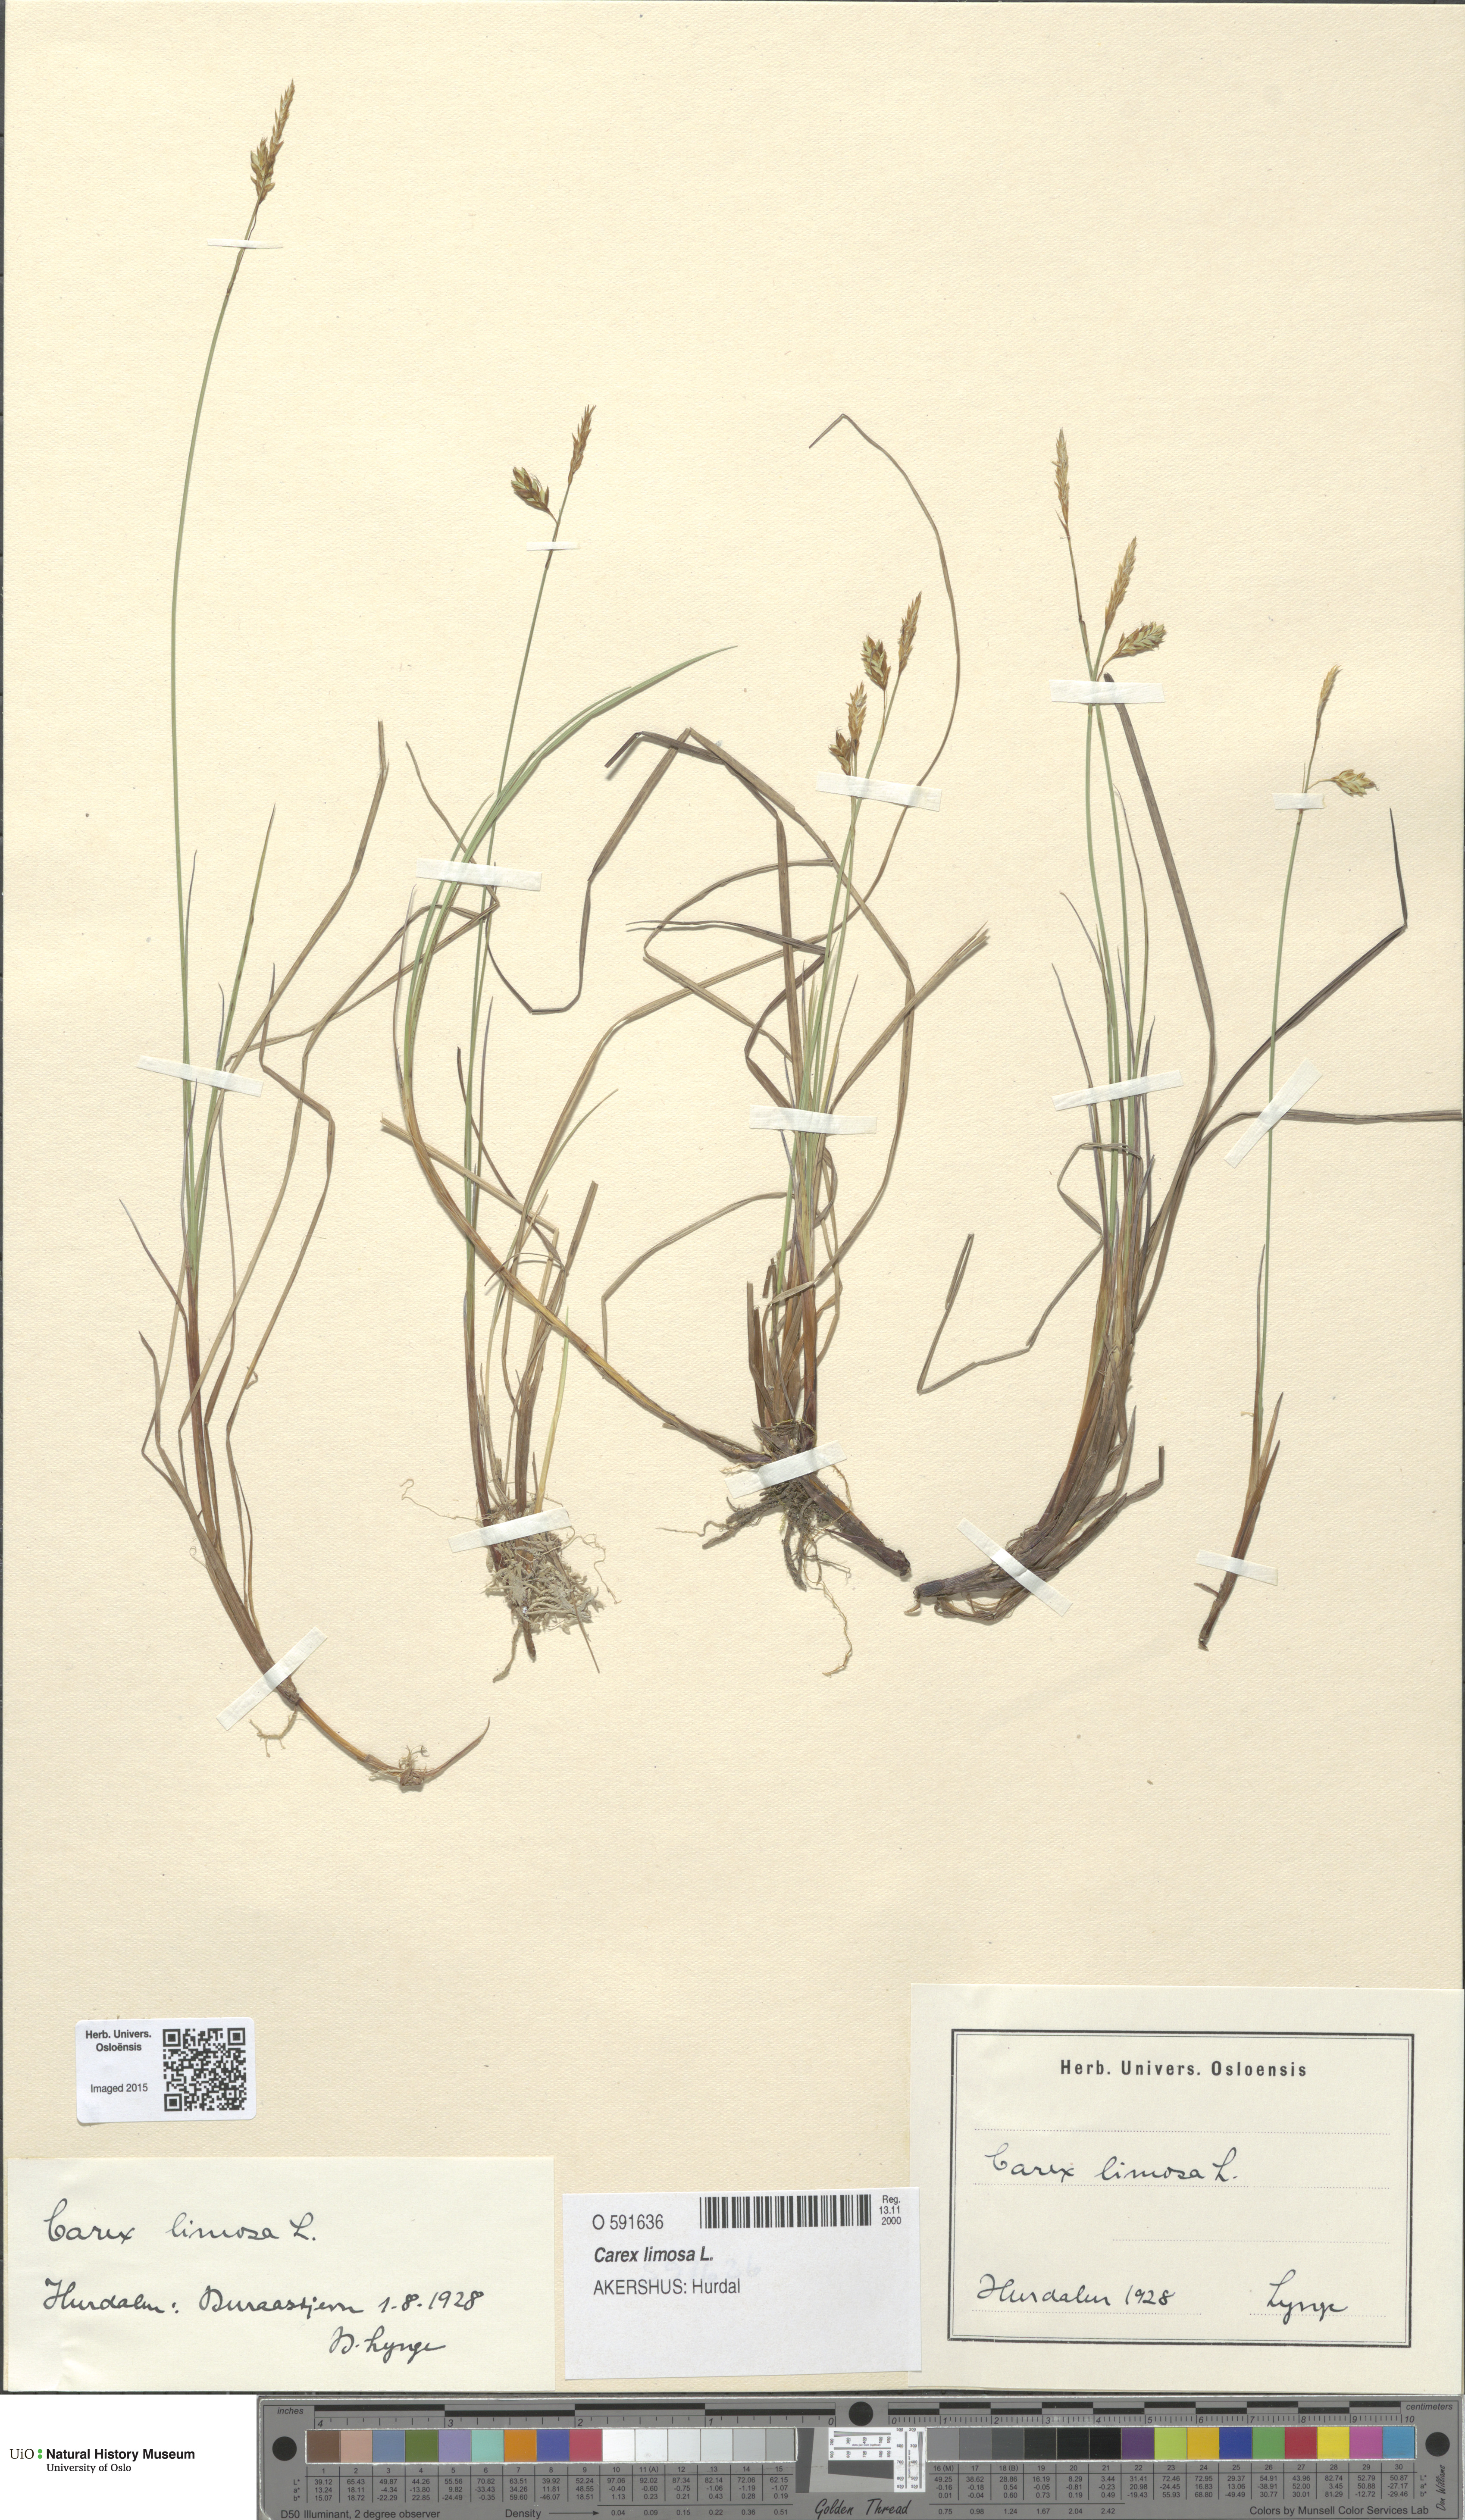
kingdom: Plantae
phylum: Tracheophyta
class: Liliopsida
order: Poales
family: Cyperaceae
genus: Carex
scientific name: Carex limosa
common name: Bog sedge
